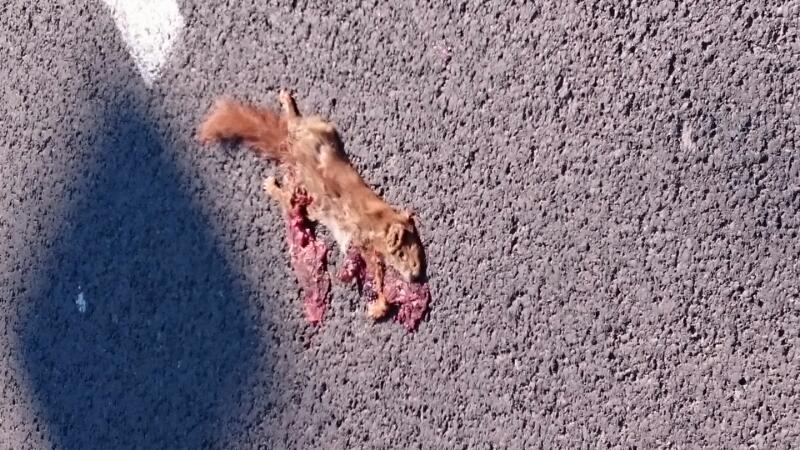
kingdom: Animalia
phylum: Chordata
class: Mammalia
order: Rodentia
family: Sciuridae
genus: Sciurus
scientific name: Sciurus vulgaris
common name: Eurasian red squirrel
